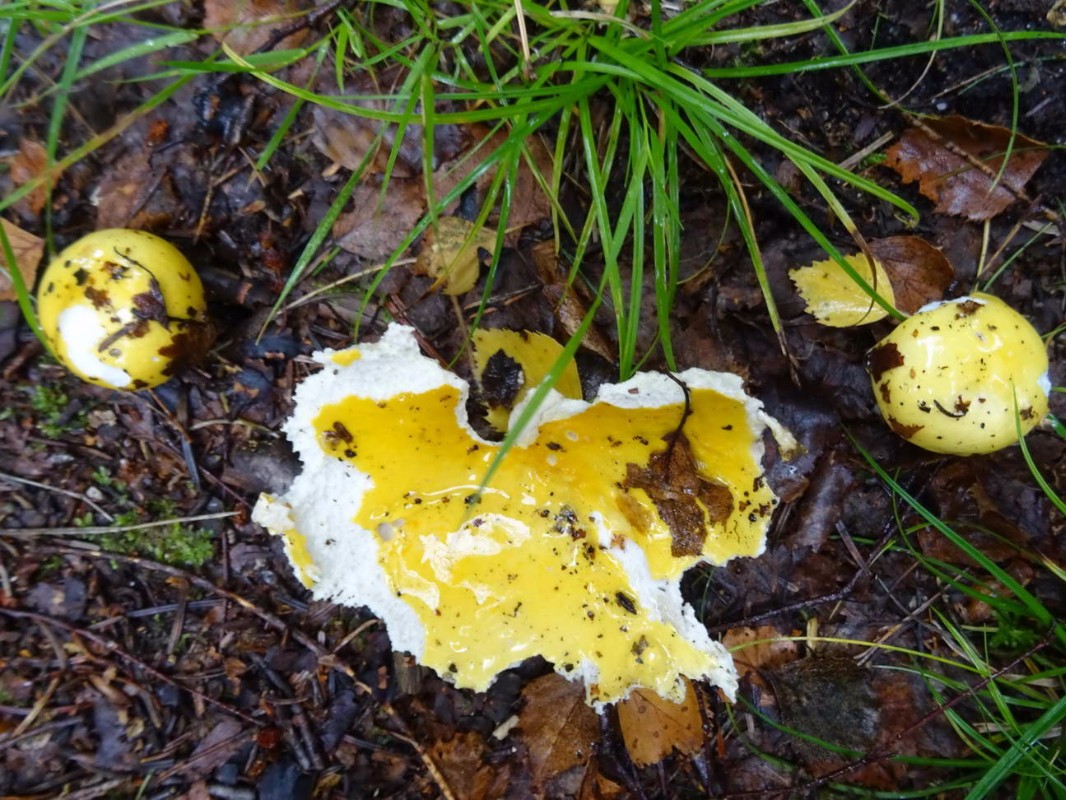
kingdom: Fungi
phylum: Basidiomycota
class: Agaricomycetes
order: Russulales
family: Russulaceae
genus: Russula
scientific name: Russula claroflava
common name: birke-skørhat
